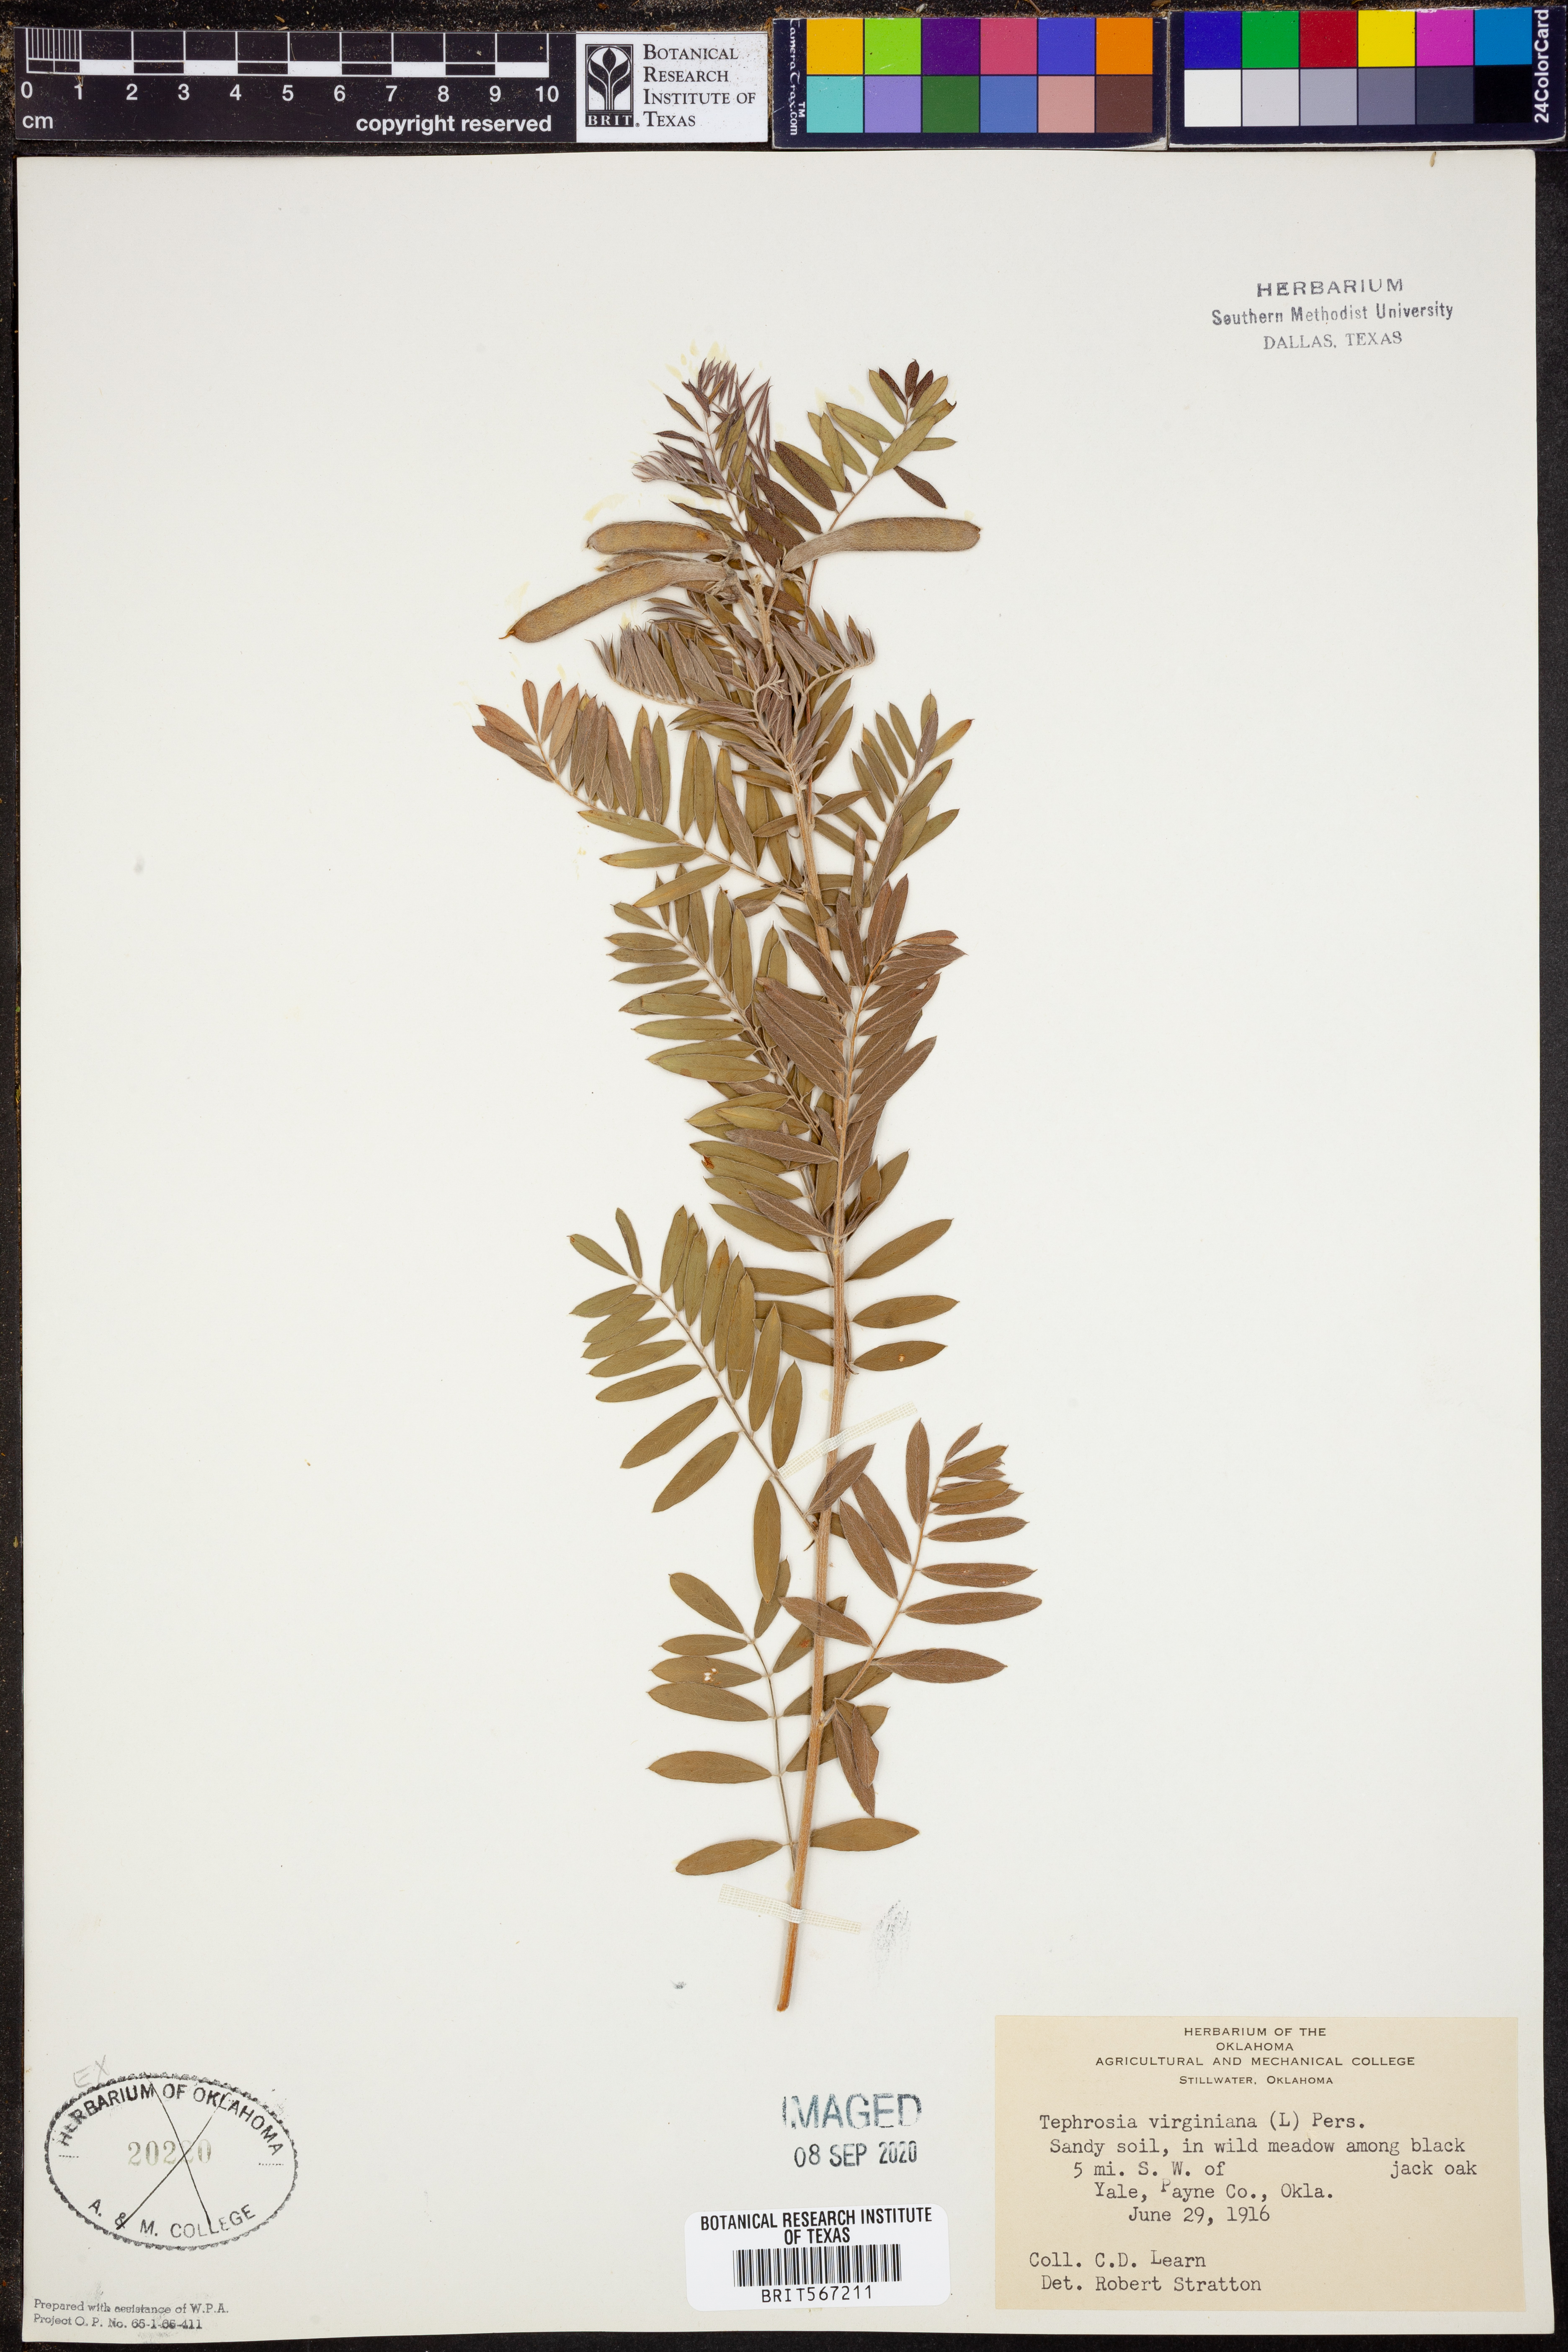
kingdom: Plantae
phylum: Tracheophyta
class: Magnoliopsida
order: Fabales
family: Fabaceae
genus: Tephrosia
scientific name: Tephrosia virginiana
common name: Rabbit-pea
